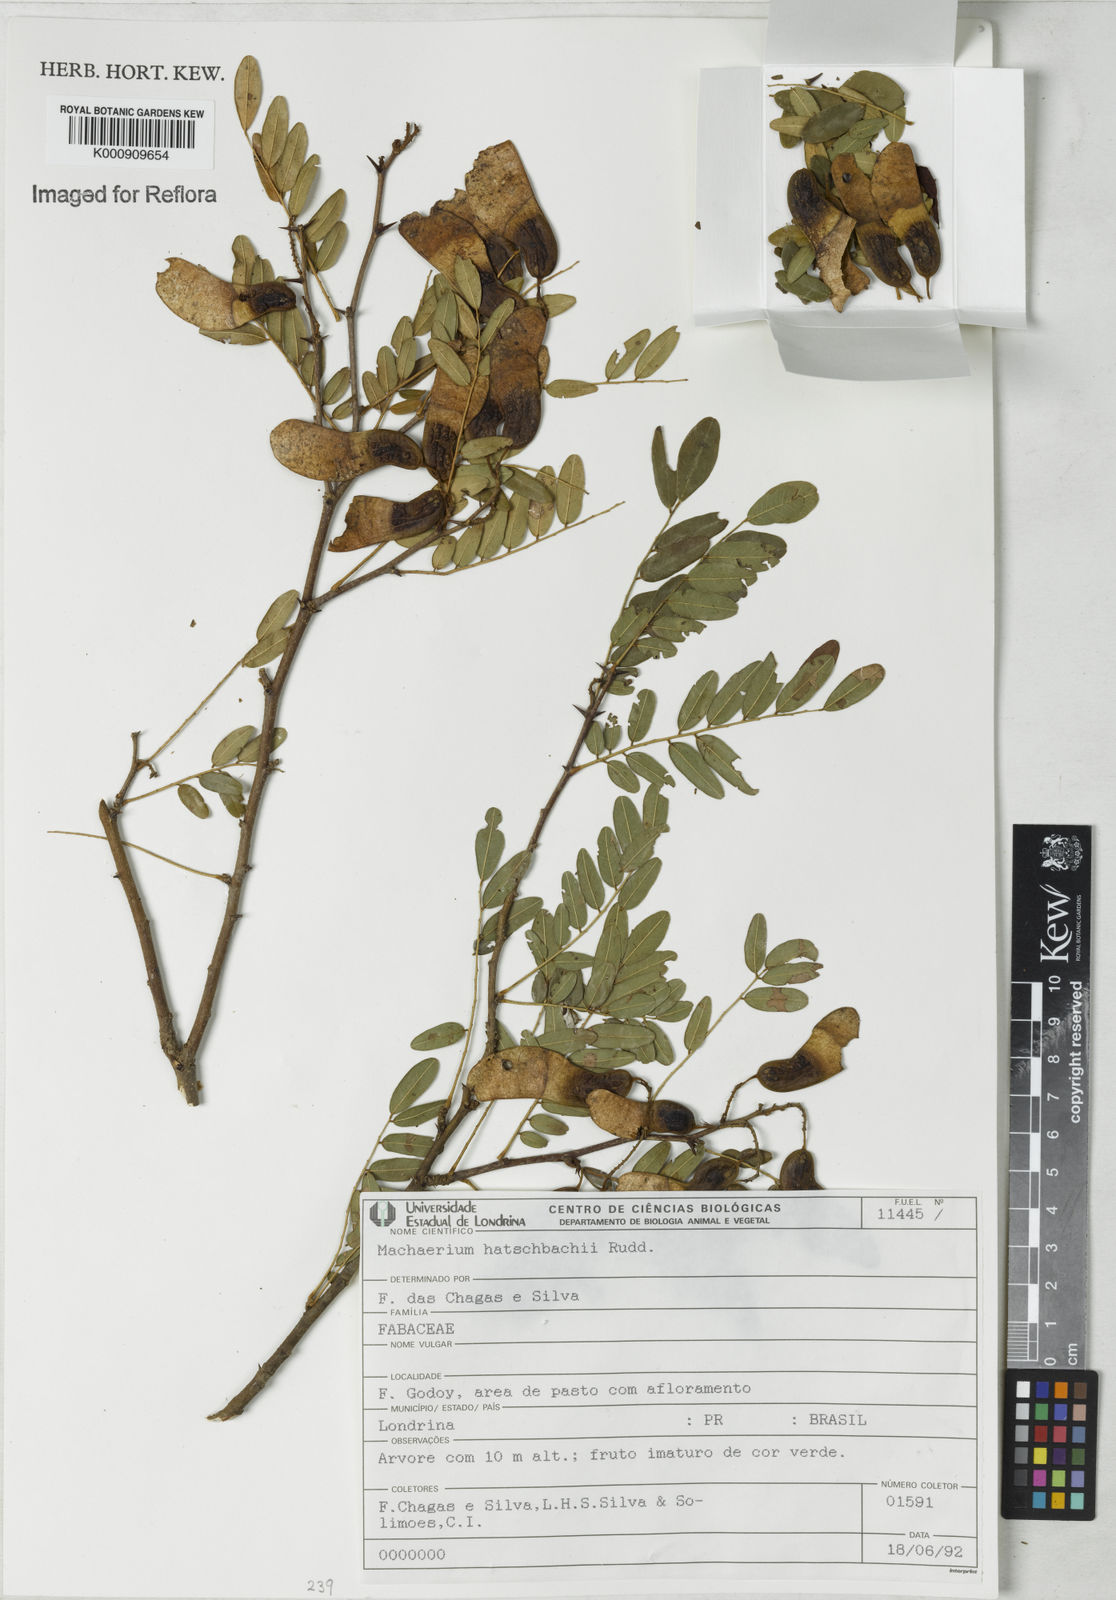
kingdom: Plantae
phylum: Tracheophyta
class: Magnoliopsida
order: Fabales
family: Fabaceae
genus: Machaerium
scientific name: Machaerium hatschbachii
